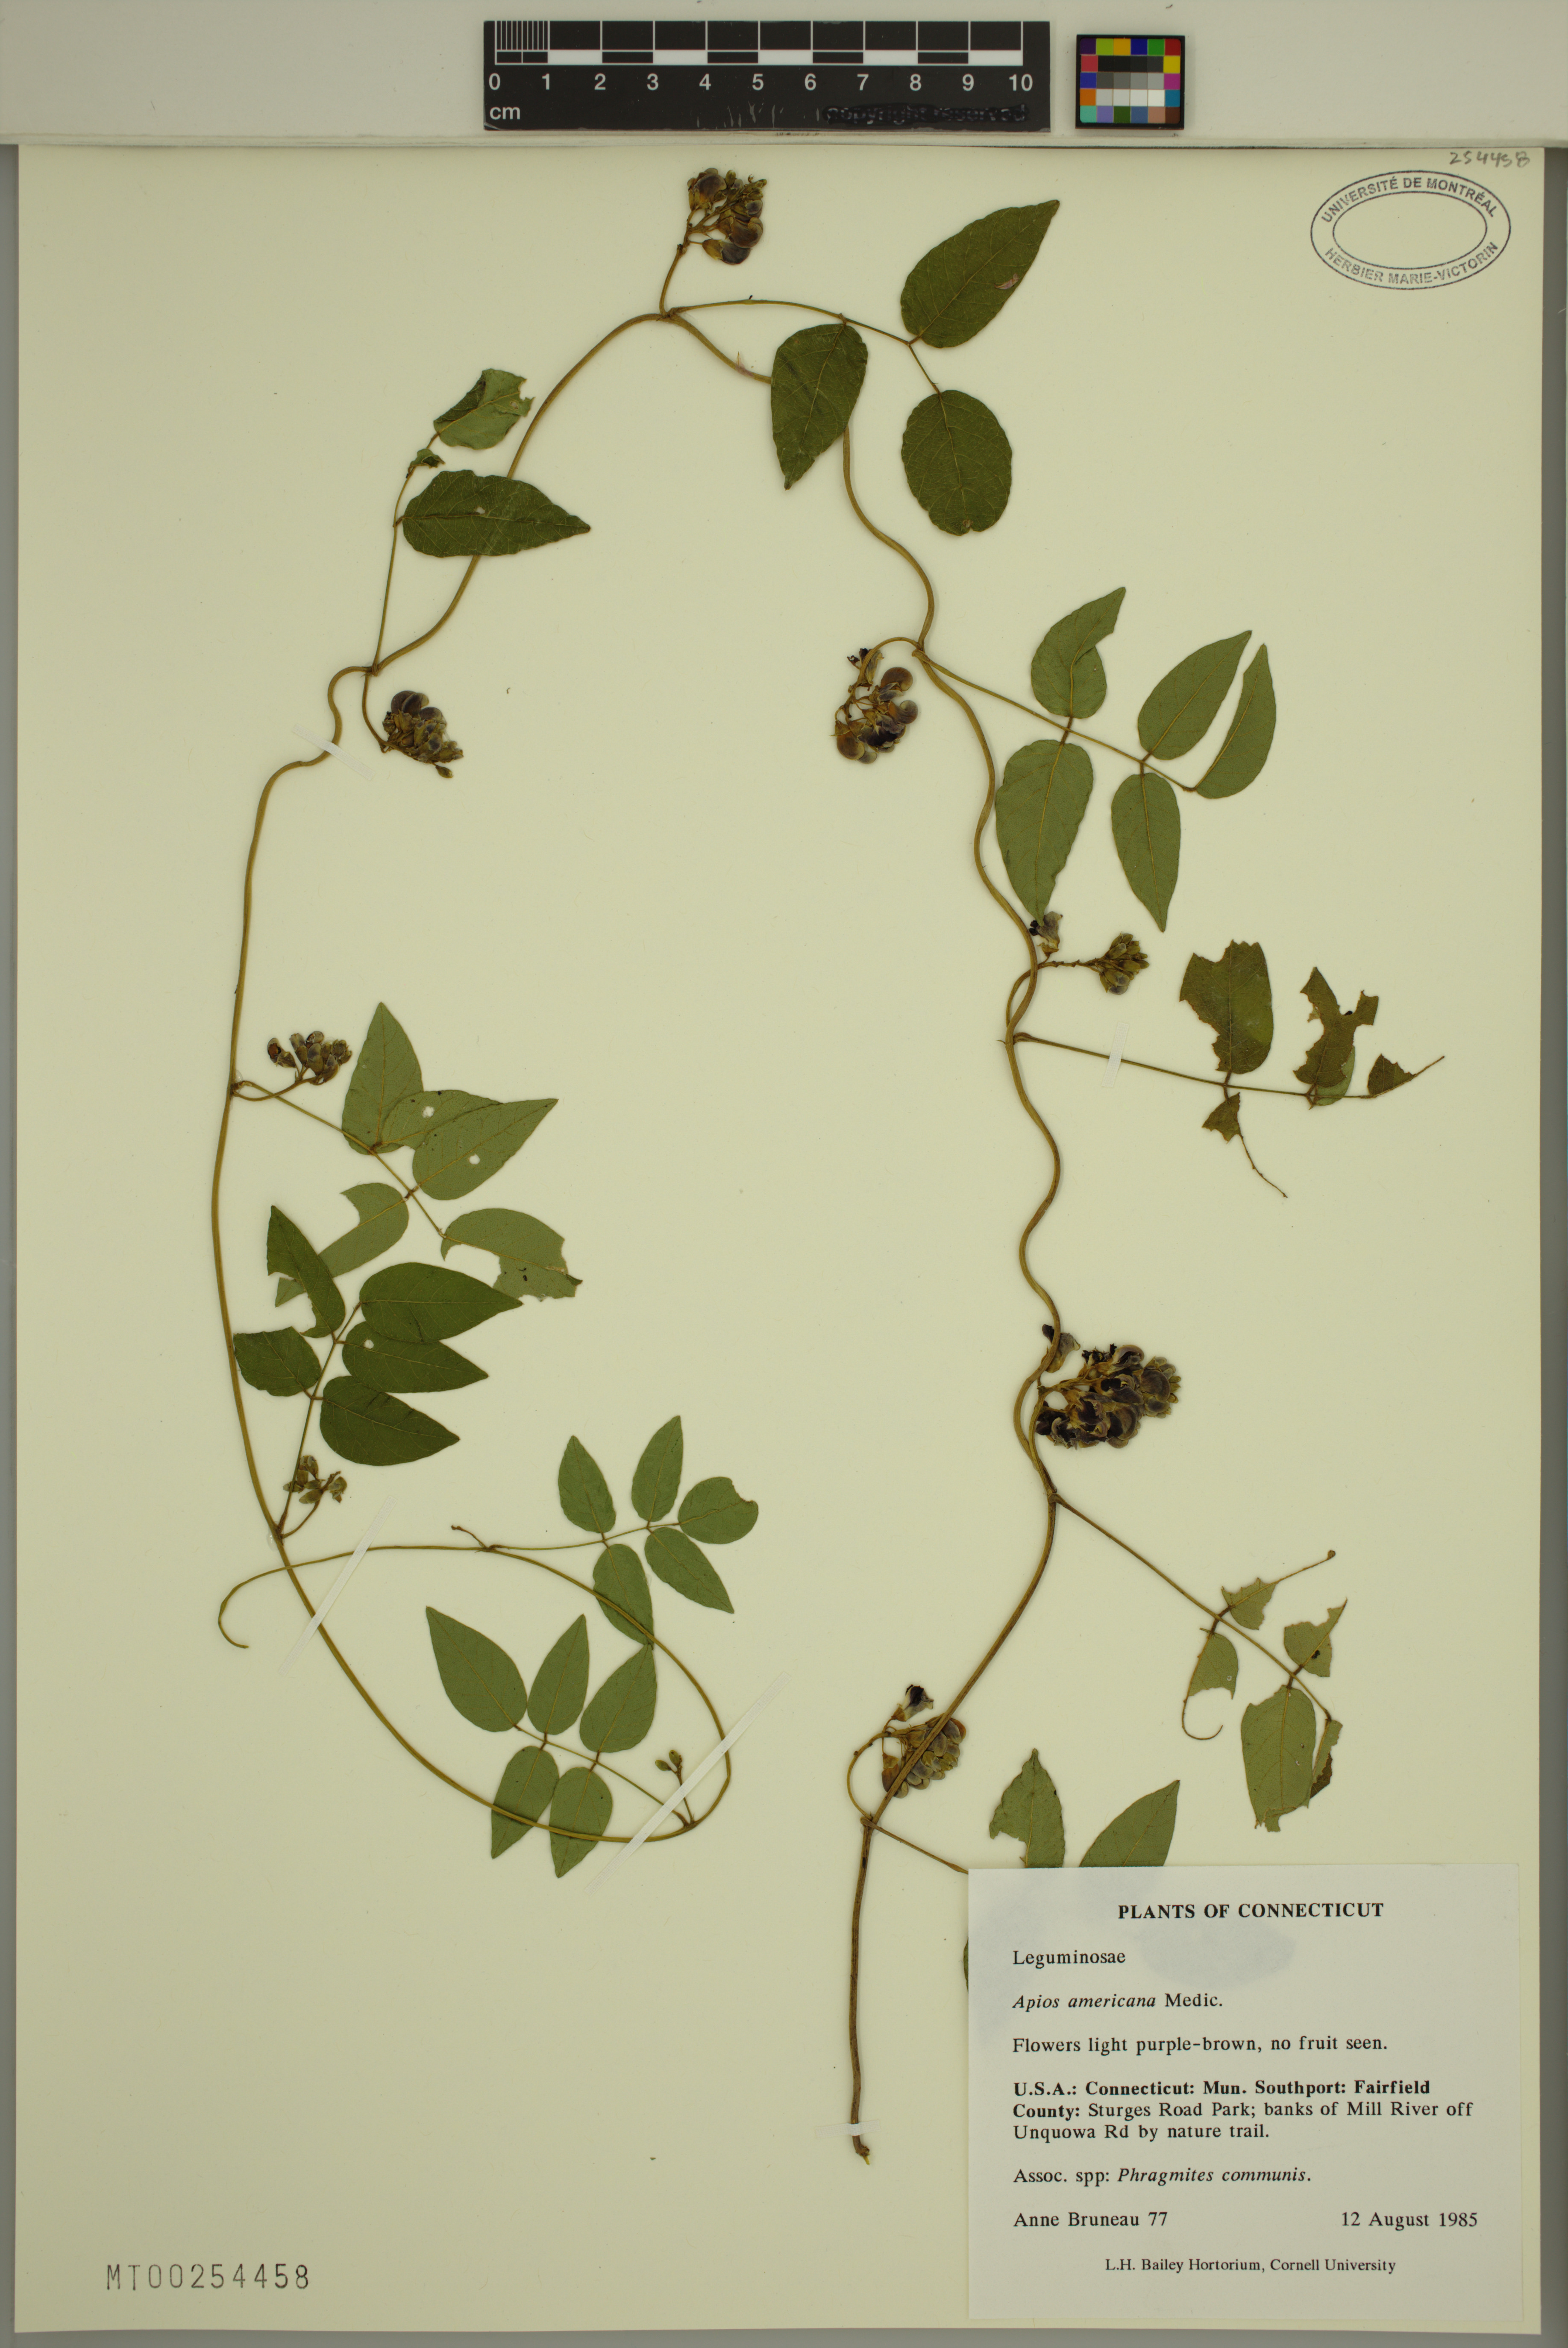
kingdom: Plantae
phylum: Tracheophyta
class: Magnoliopsida
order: Fabales
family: Fabaceae
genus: Apios
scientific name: Apios americana
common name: American potato-bean
